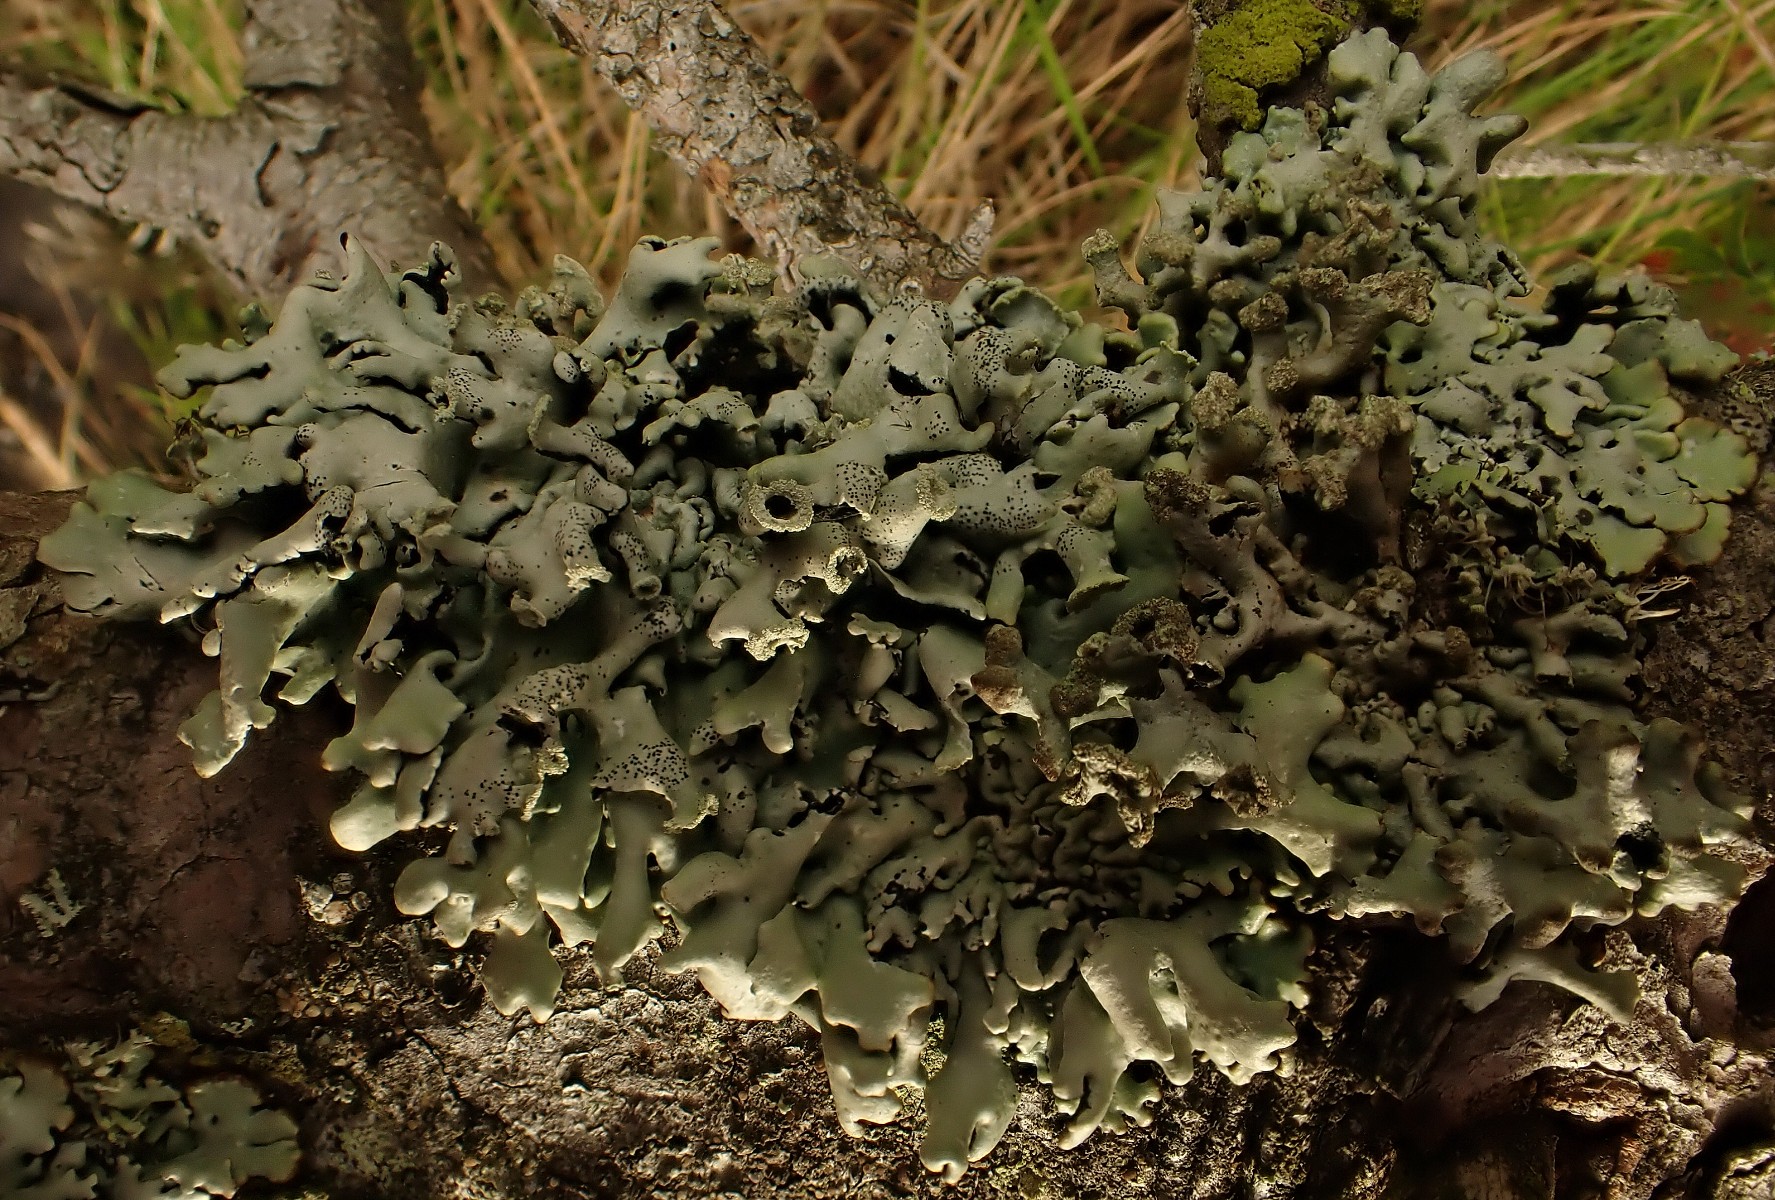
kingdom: Fungi
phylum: Ascomycota
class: Lecanoromycetes
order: Lecanorales
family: Parmeliaceae
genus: Hypogymnia
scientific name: Hypogymnia physodes
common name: almindelig kvistlav
